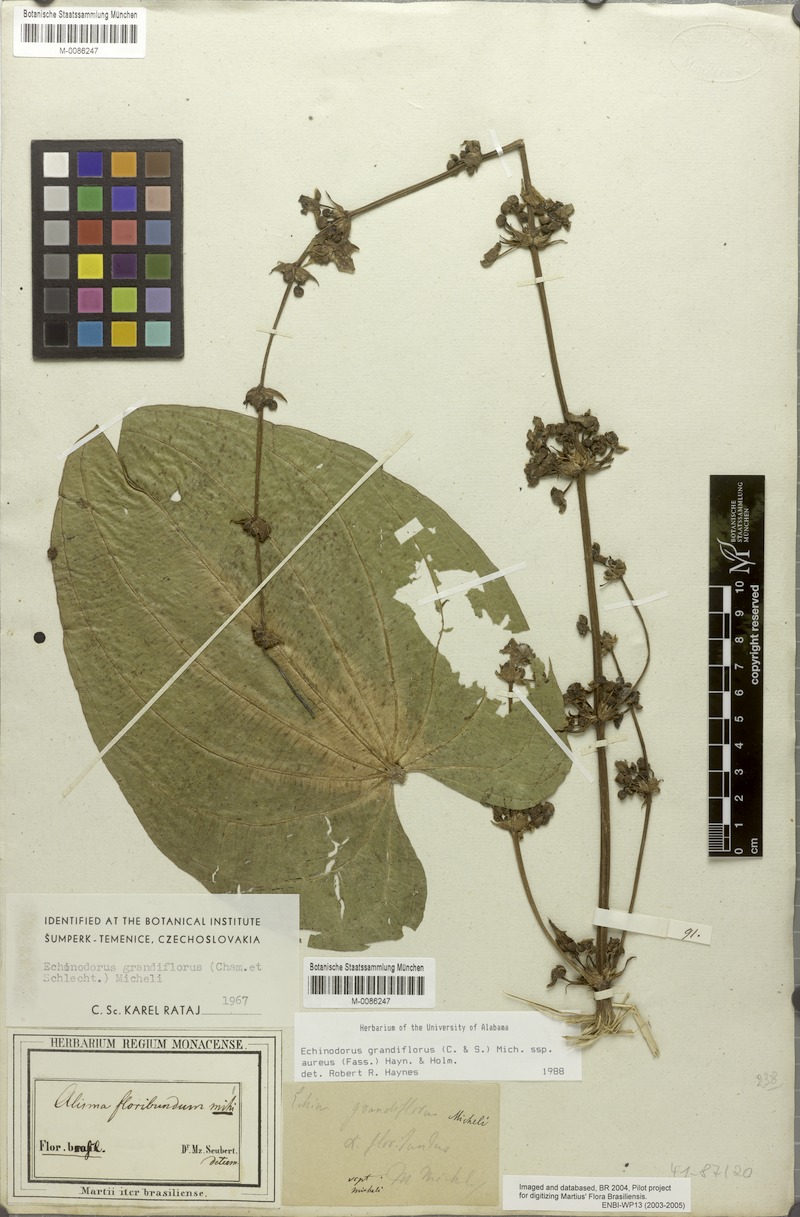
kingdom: Plantae
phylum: Tracheophyta
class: Liliopsida
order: Alismatales
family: Alismataceae
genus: Aquarius
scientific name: Aquarius floribundus
